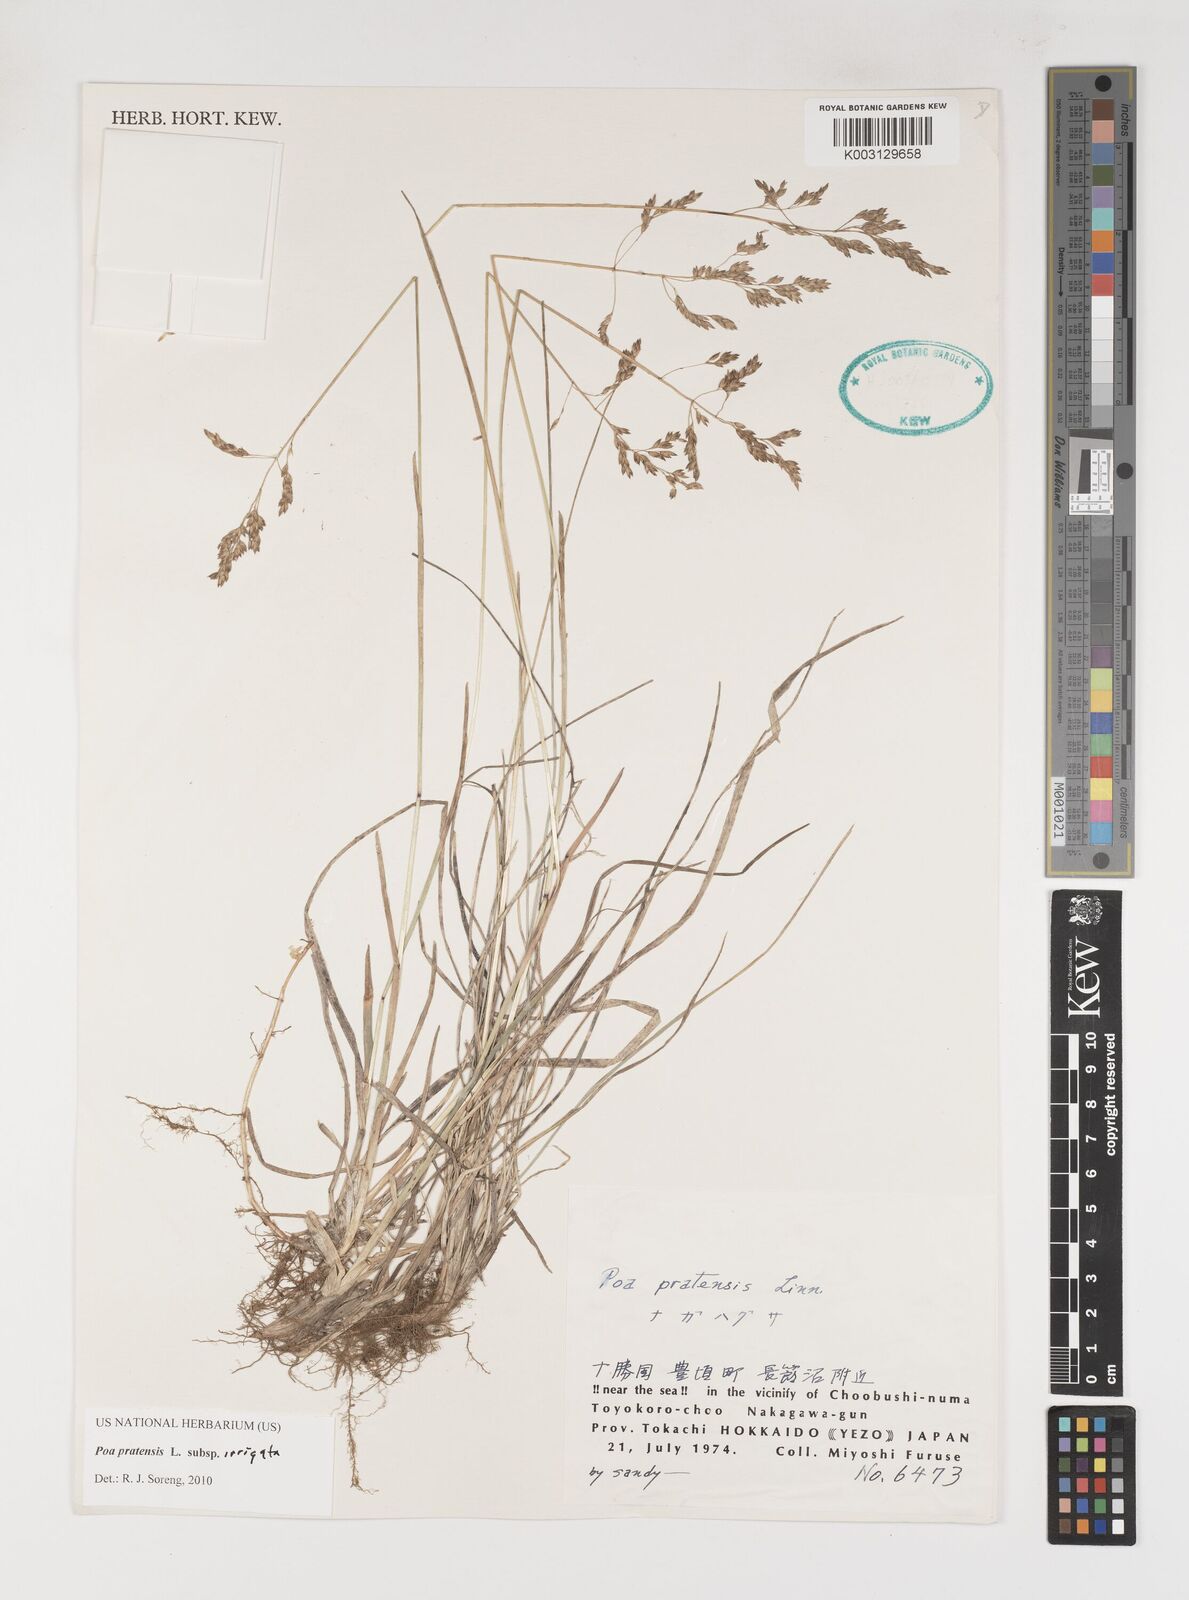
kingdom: Plantae
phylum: Tracheophyta
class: Liliopsida
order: Poales
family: Poaceae
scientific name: Poaceae
